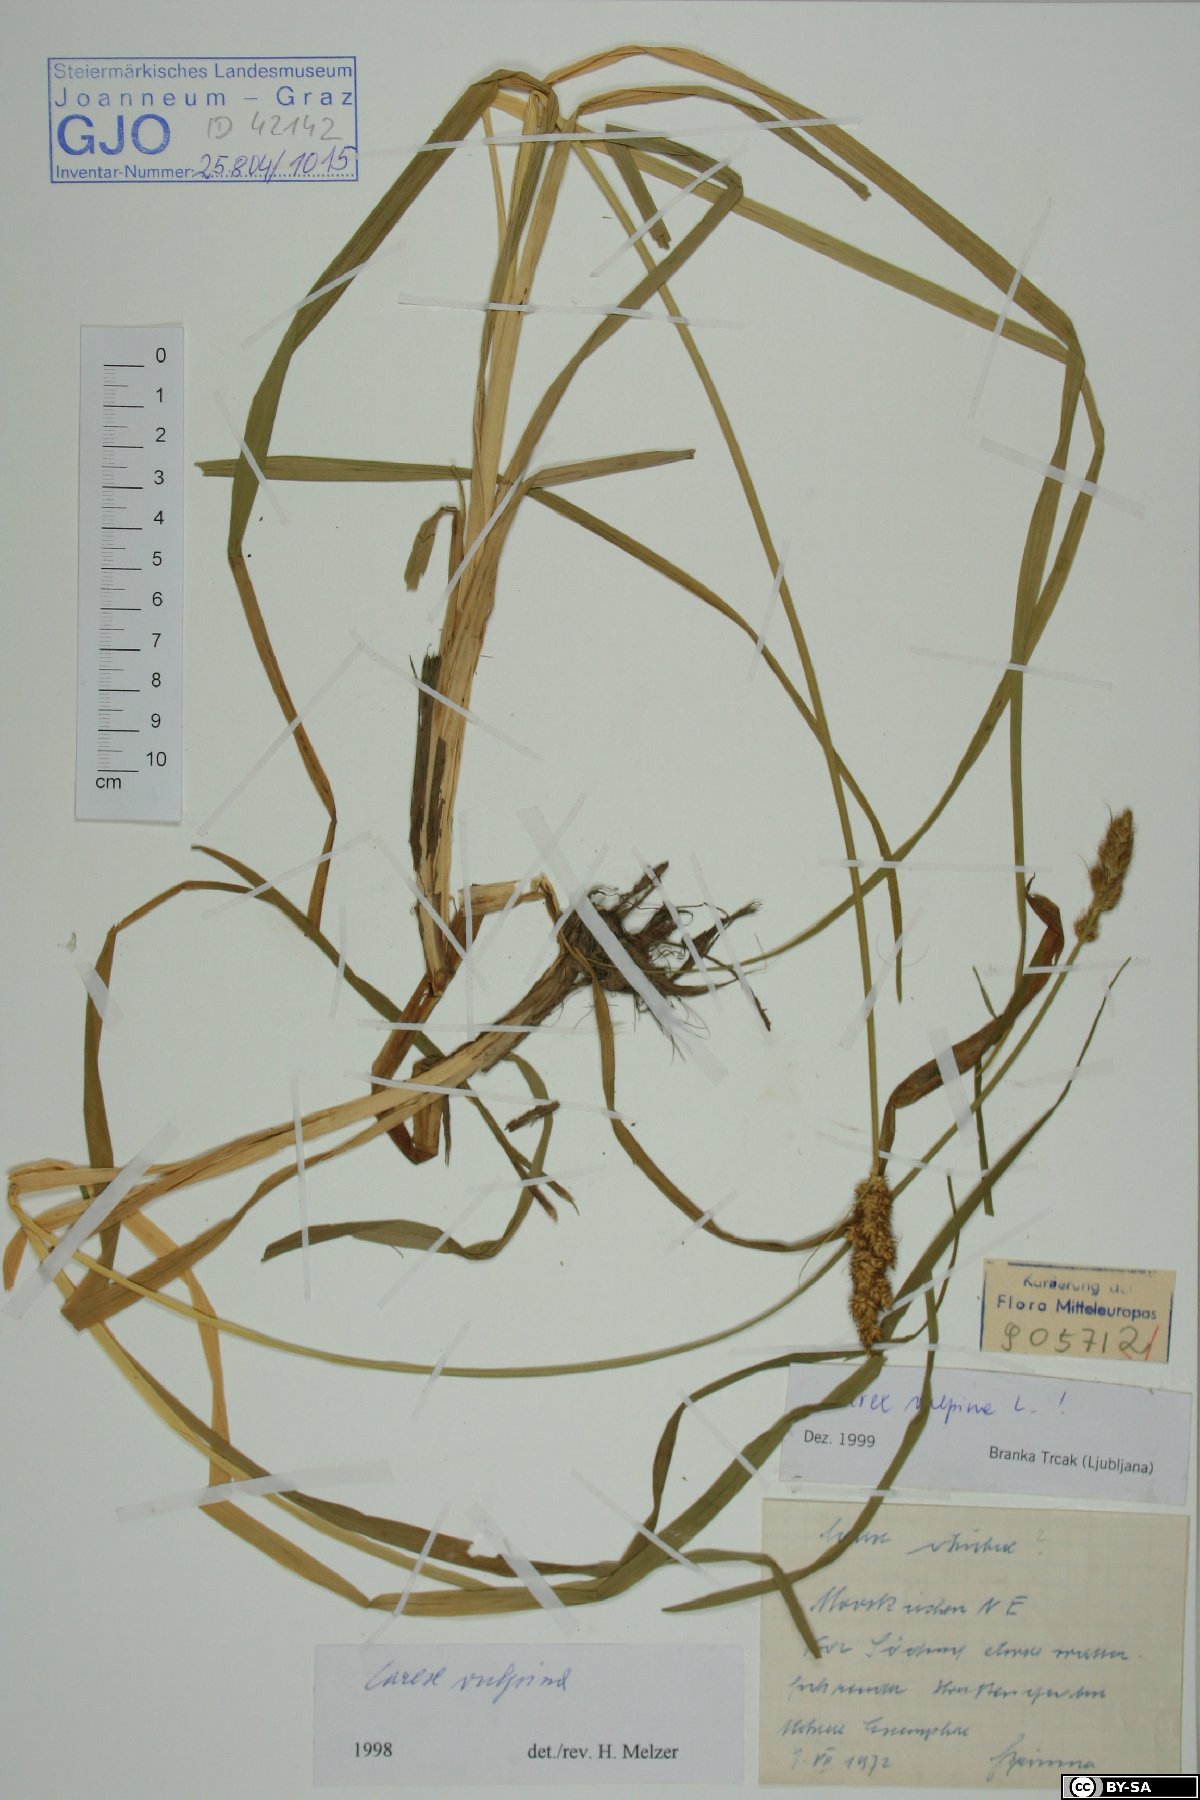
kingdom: Plantae
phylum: Tracheophyta
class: Liliopsida
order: Poales
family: Cyperaceae
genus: Carex
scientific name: Carex vulpina
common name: True fox-sedge
